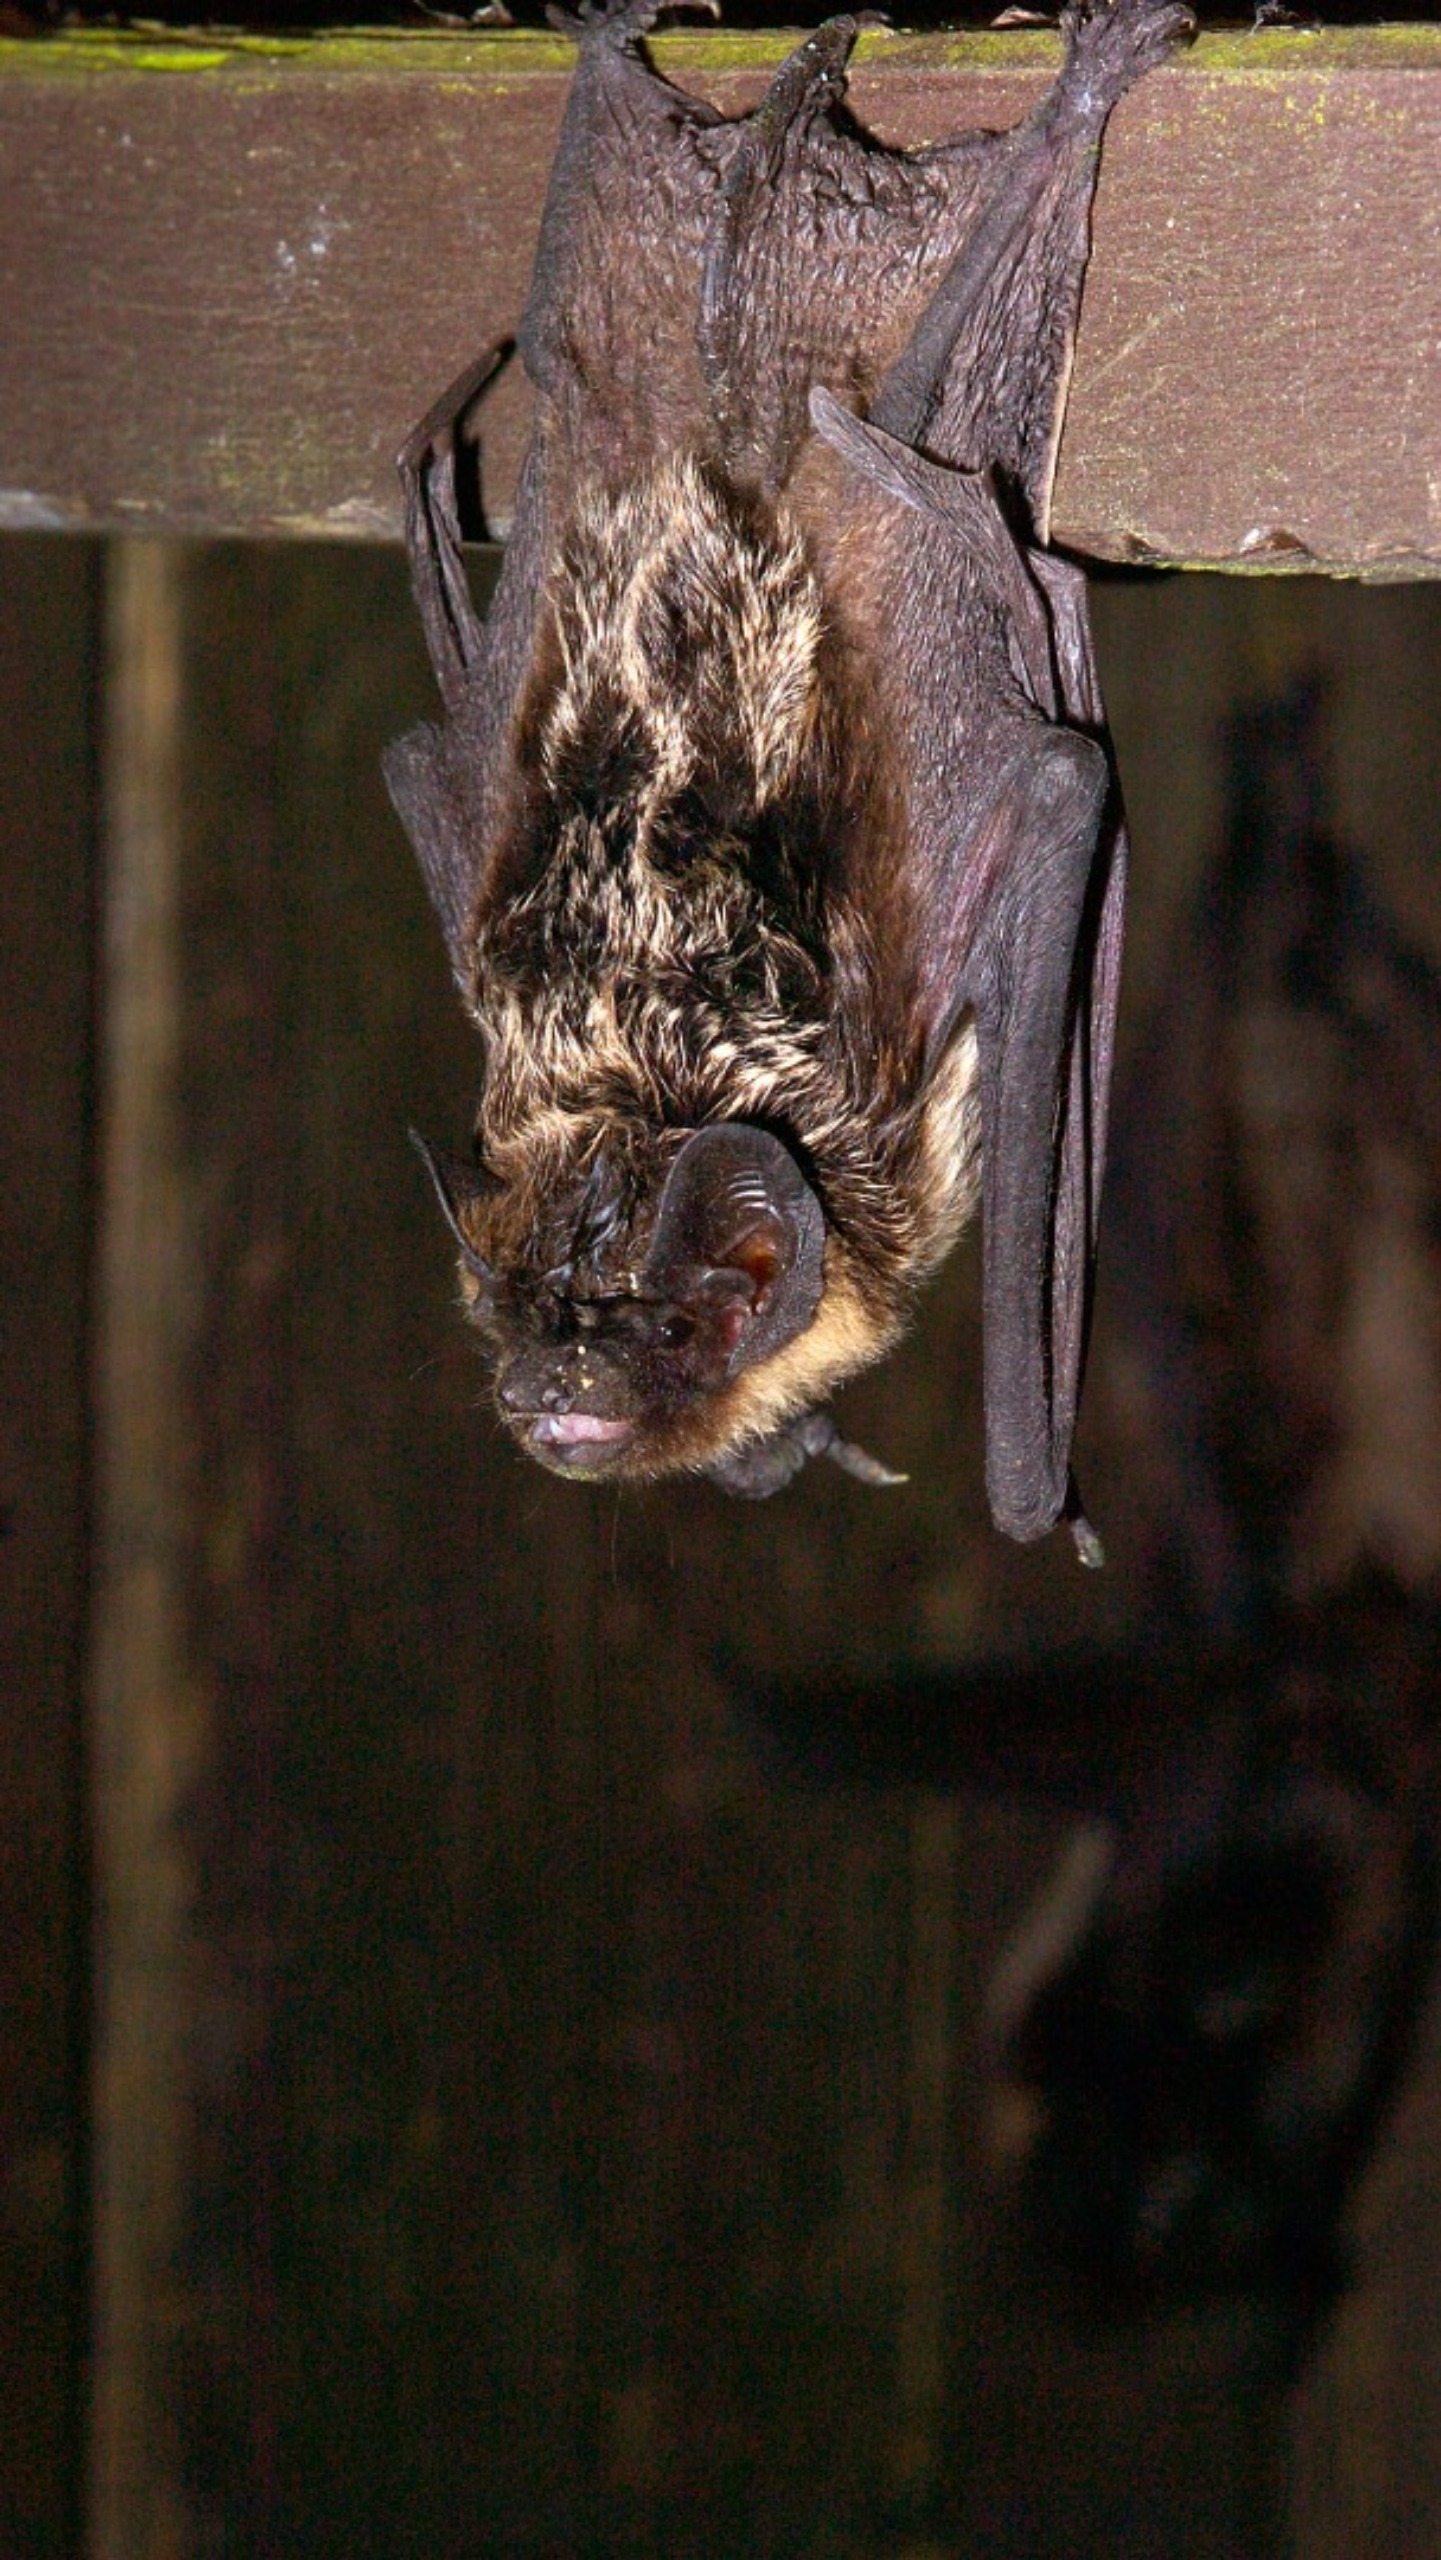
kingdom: Animalia
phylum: Chordata
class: Mammalia
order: Chiroptera
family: Vespertilionidae
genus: Vespertilio
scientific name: Vespertilio murinus
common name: Skimmelflagermus
